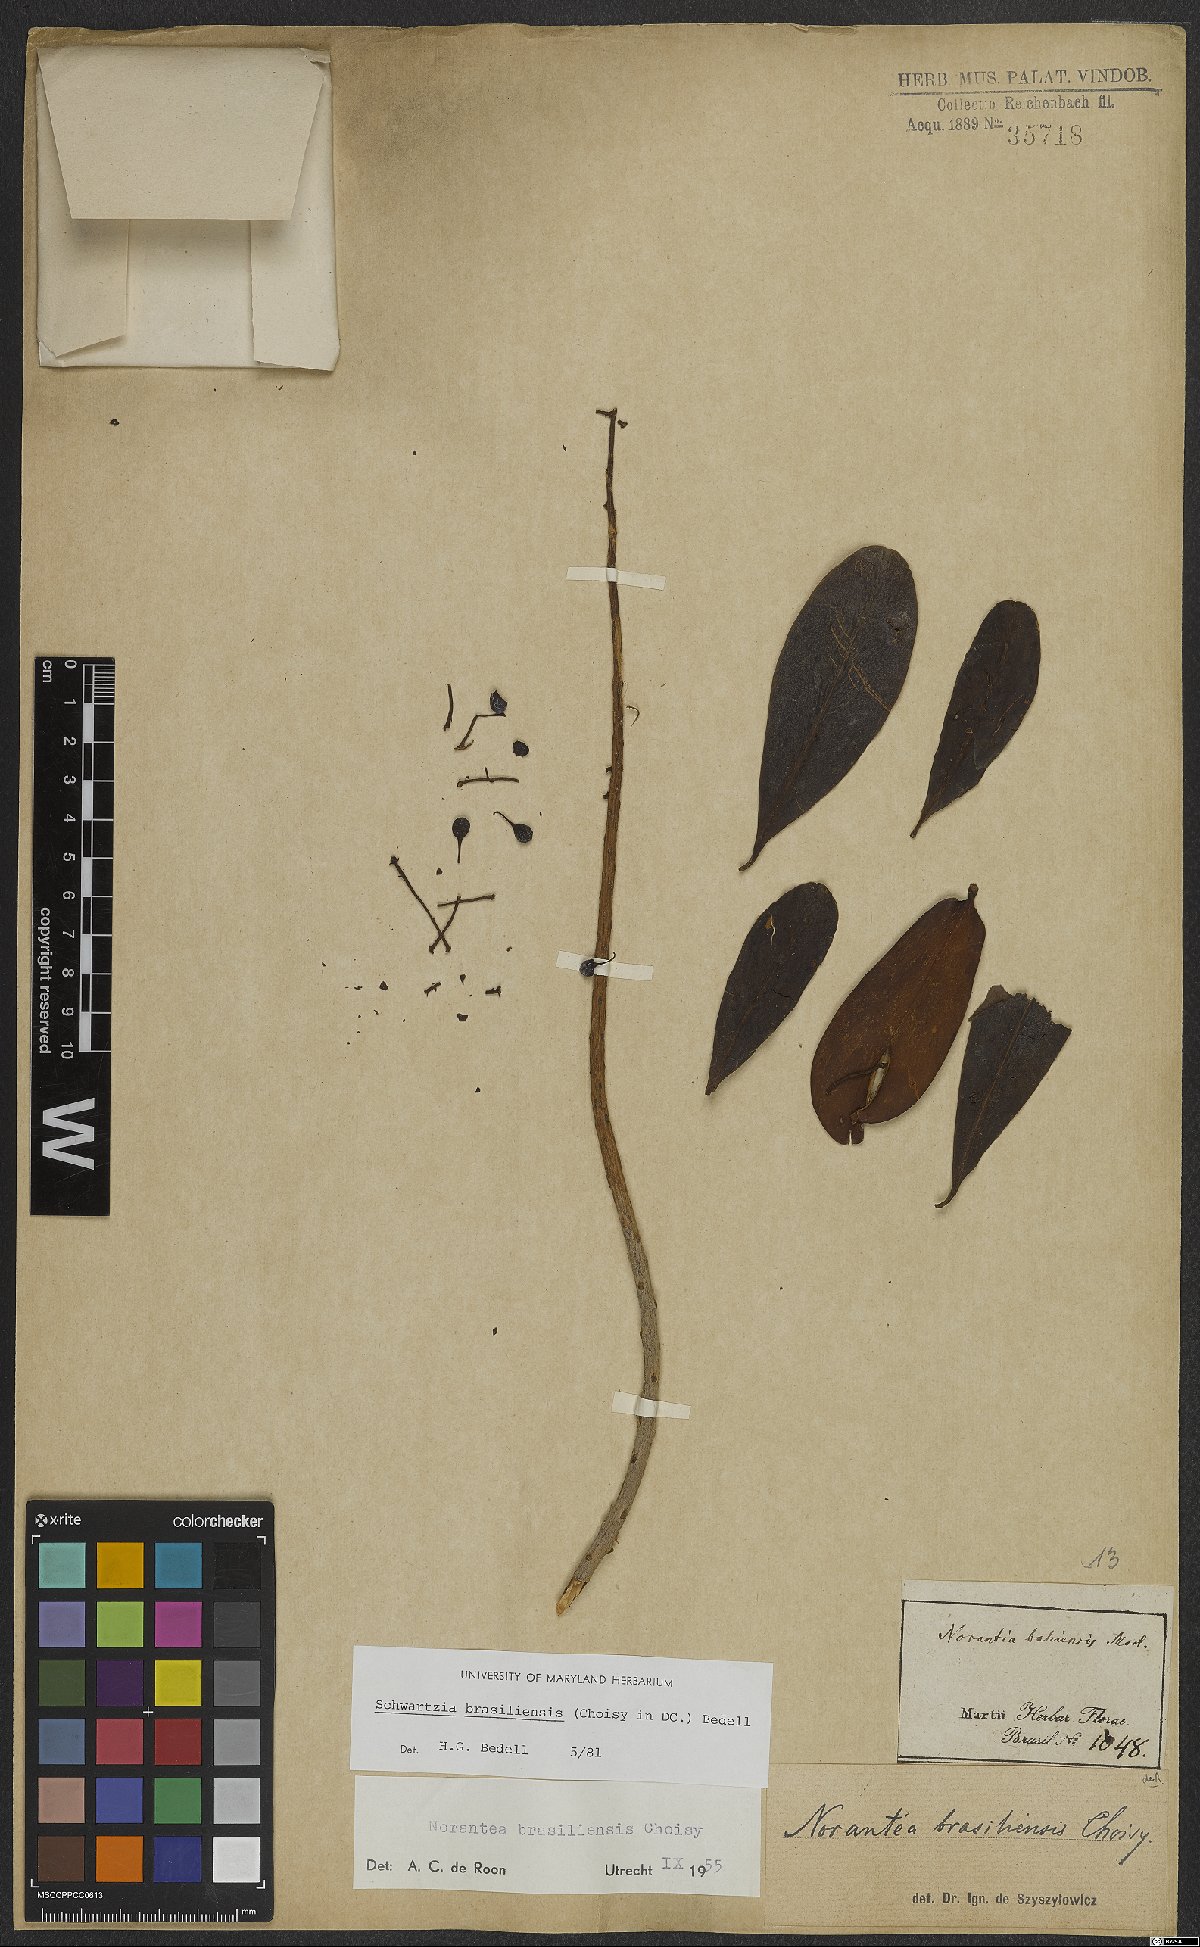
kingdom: Plantae
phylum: Tracheophyta
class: Magnoliopsida
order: Ericales
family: Marcgraviaceae
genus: Schwartzia
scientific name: Schwartzia brasiliensis
